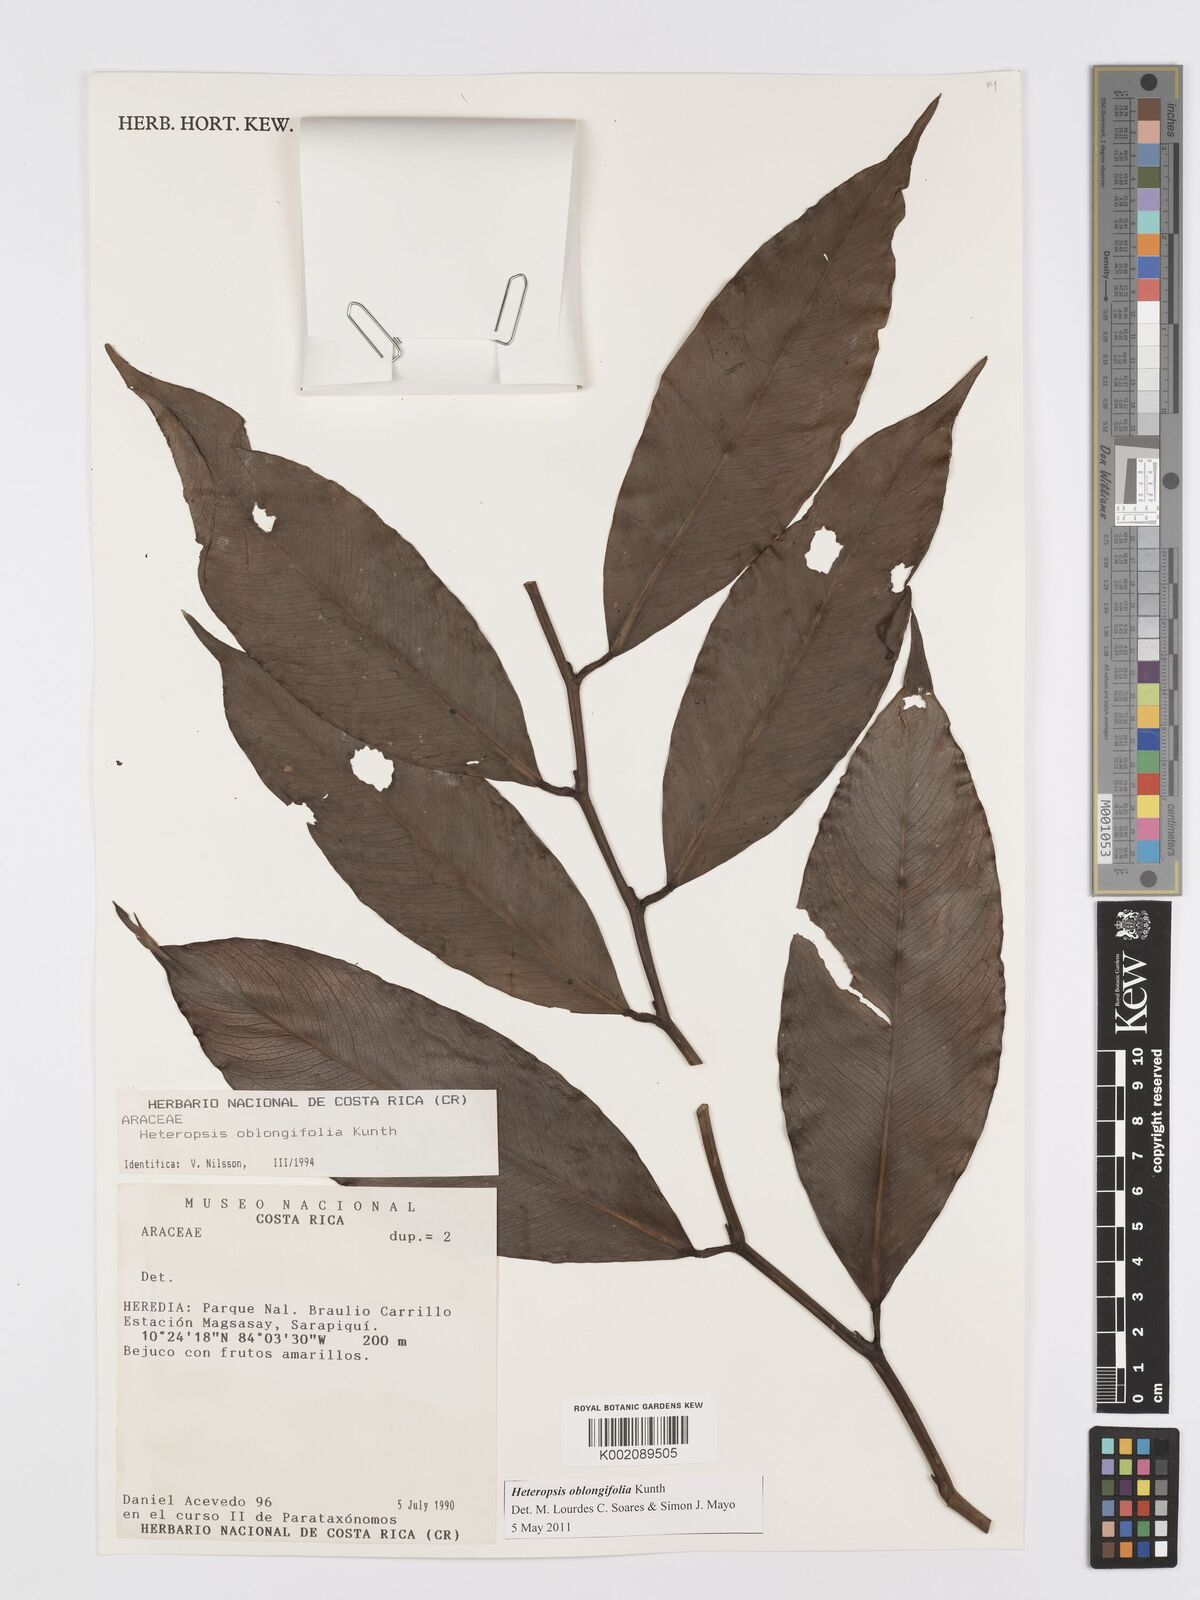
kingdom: Plantae
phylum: Tracheophyta
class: Liliopsida
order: Alismatales
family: Araceae
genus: Heteropsis
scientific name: Heteropsis oblongifolia
